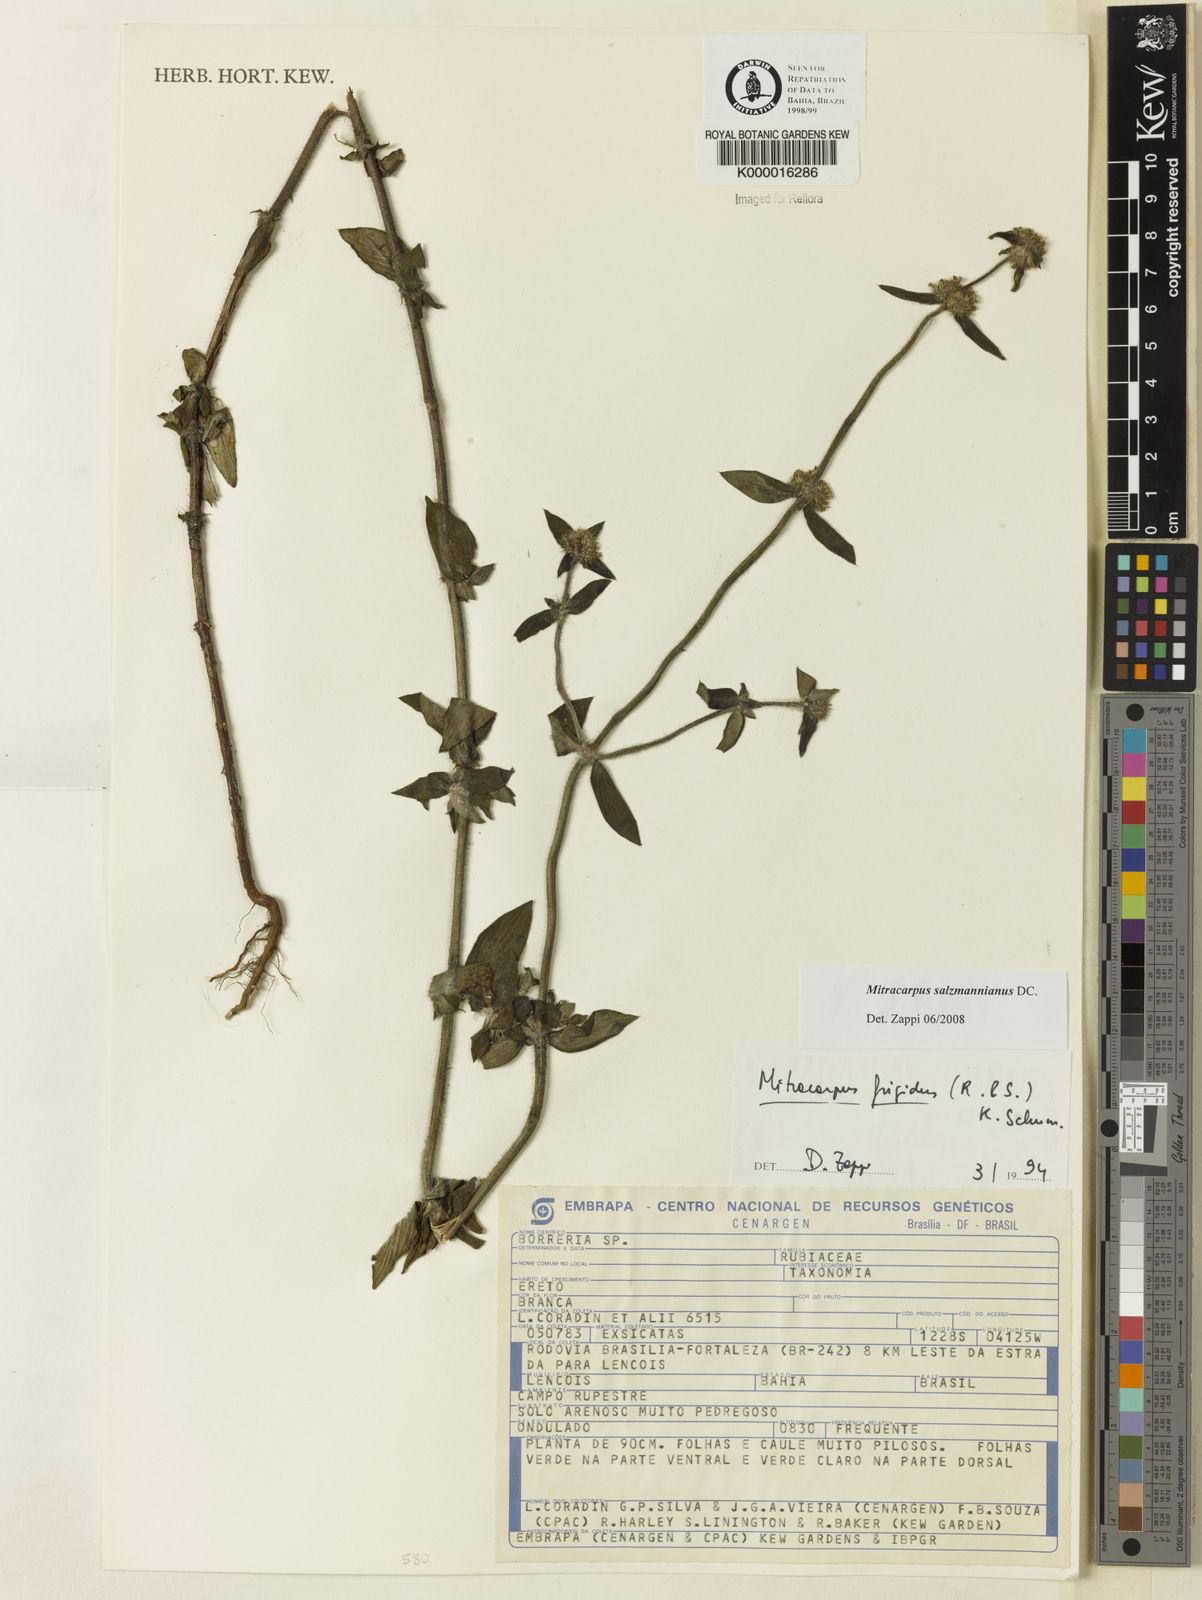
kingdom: Plantae
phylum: Tracheophyta
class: Magnoliopsida
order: Gentianales
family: Rubiaceae
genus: Mitracarpus
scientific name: Mitracarpus salzmannianus
